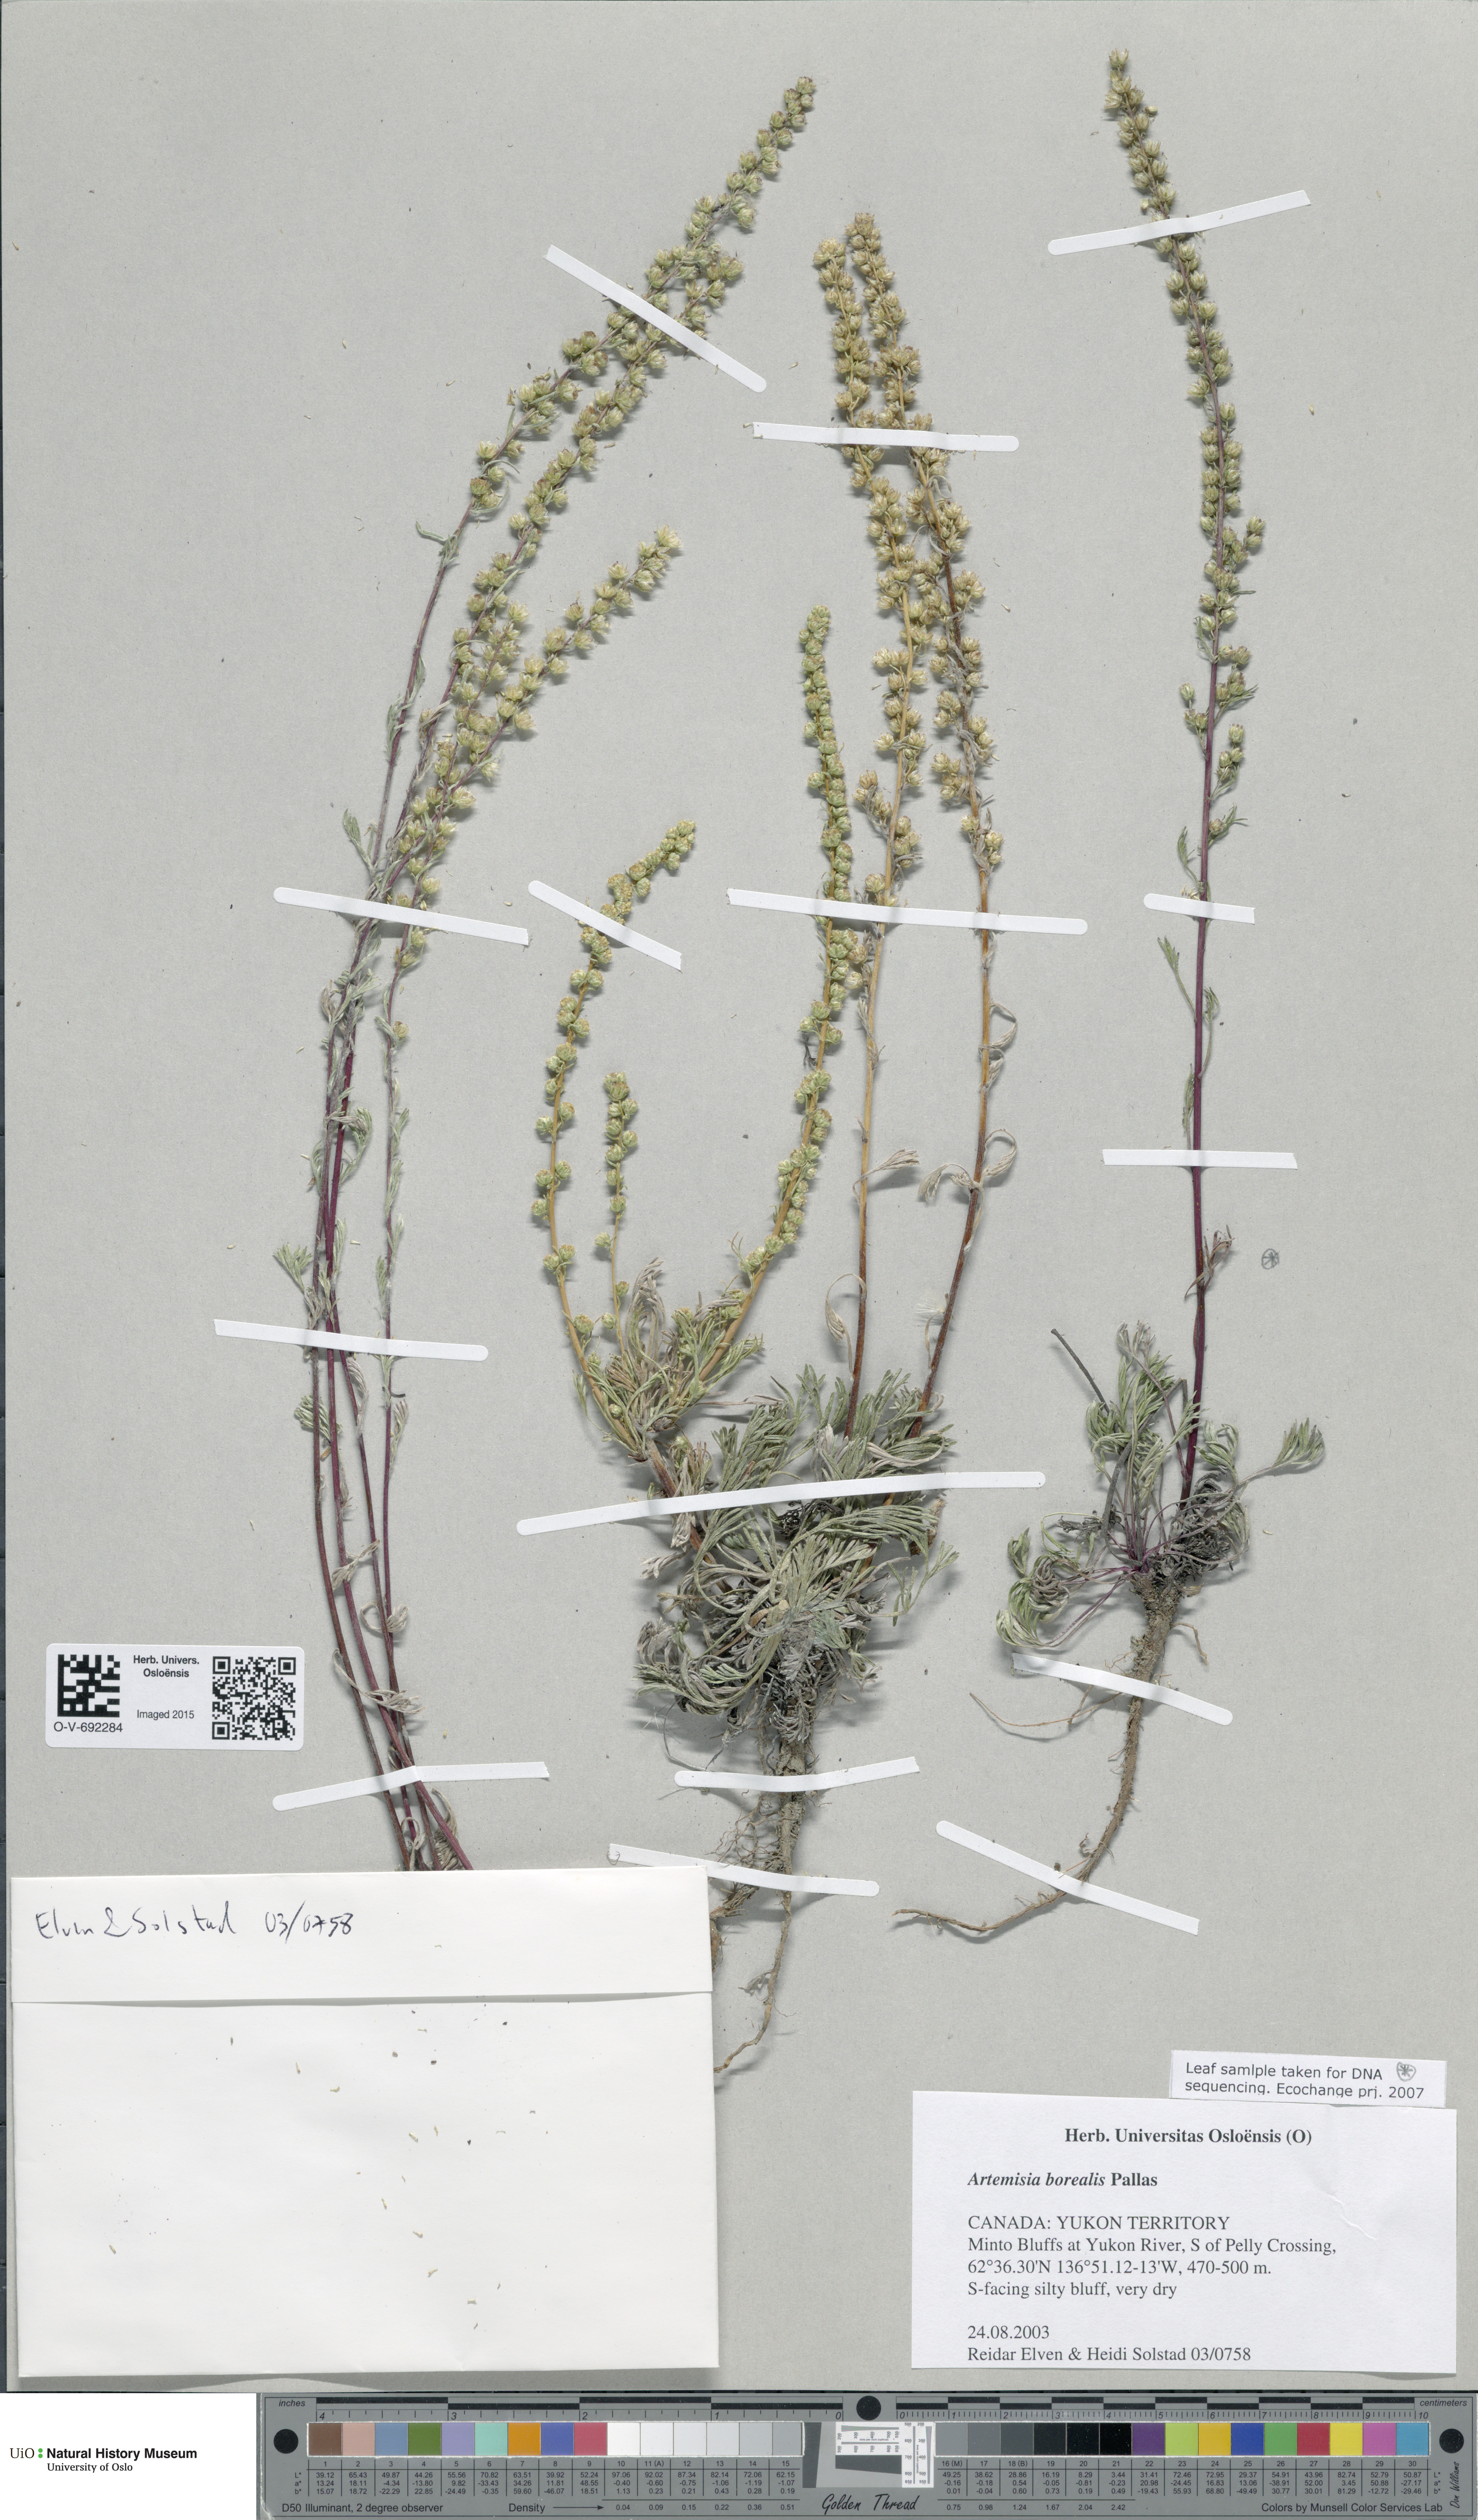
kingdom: Plantae
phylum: Tracheophyta
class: Magnoliopsida
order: Asterales
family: Asteraceae
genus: Artemisia
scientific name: Artemisia borealis
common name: Boreal sage
